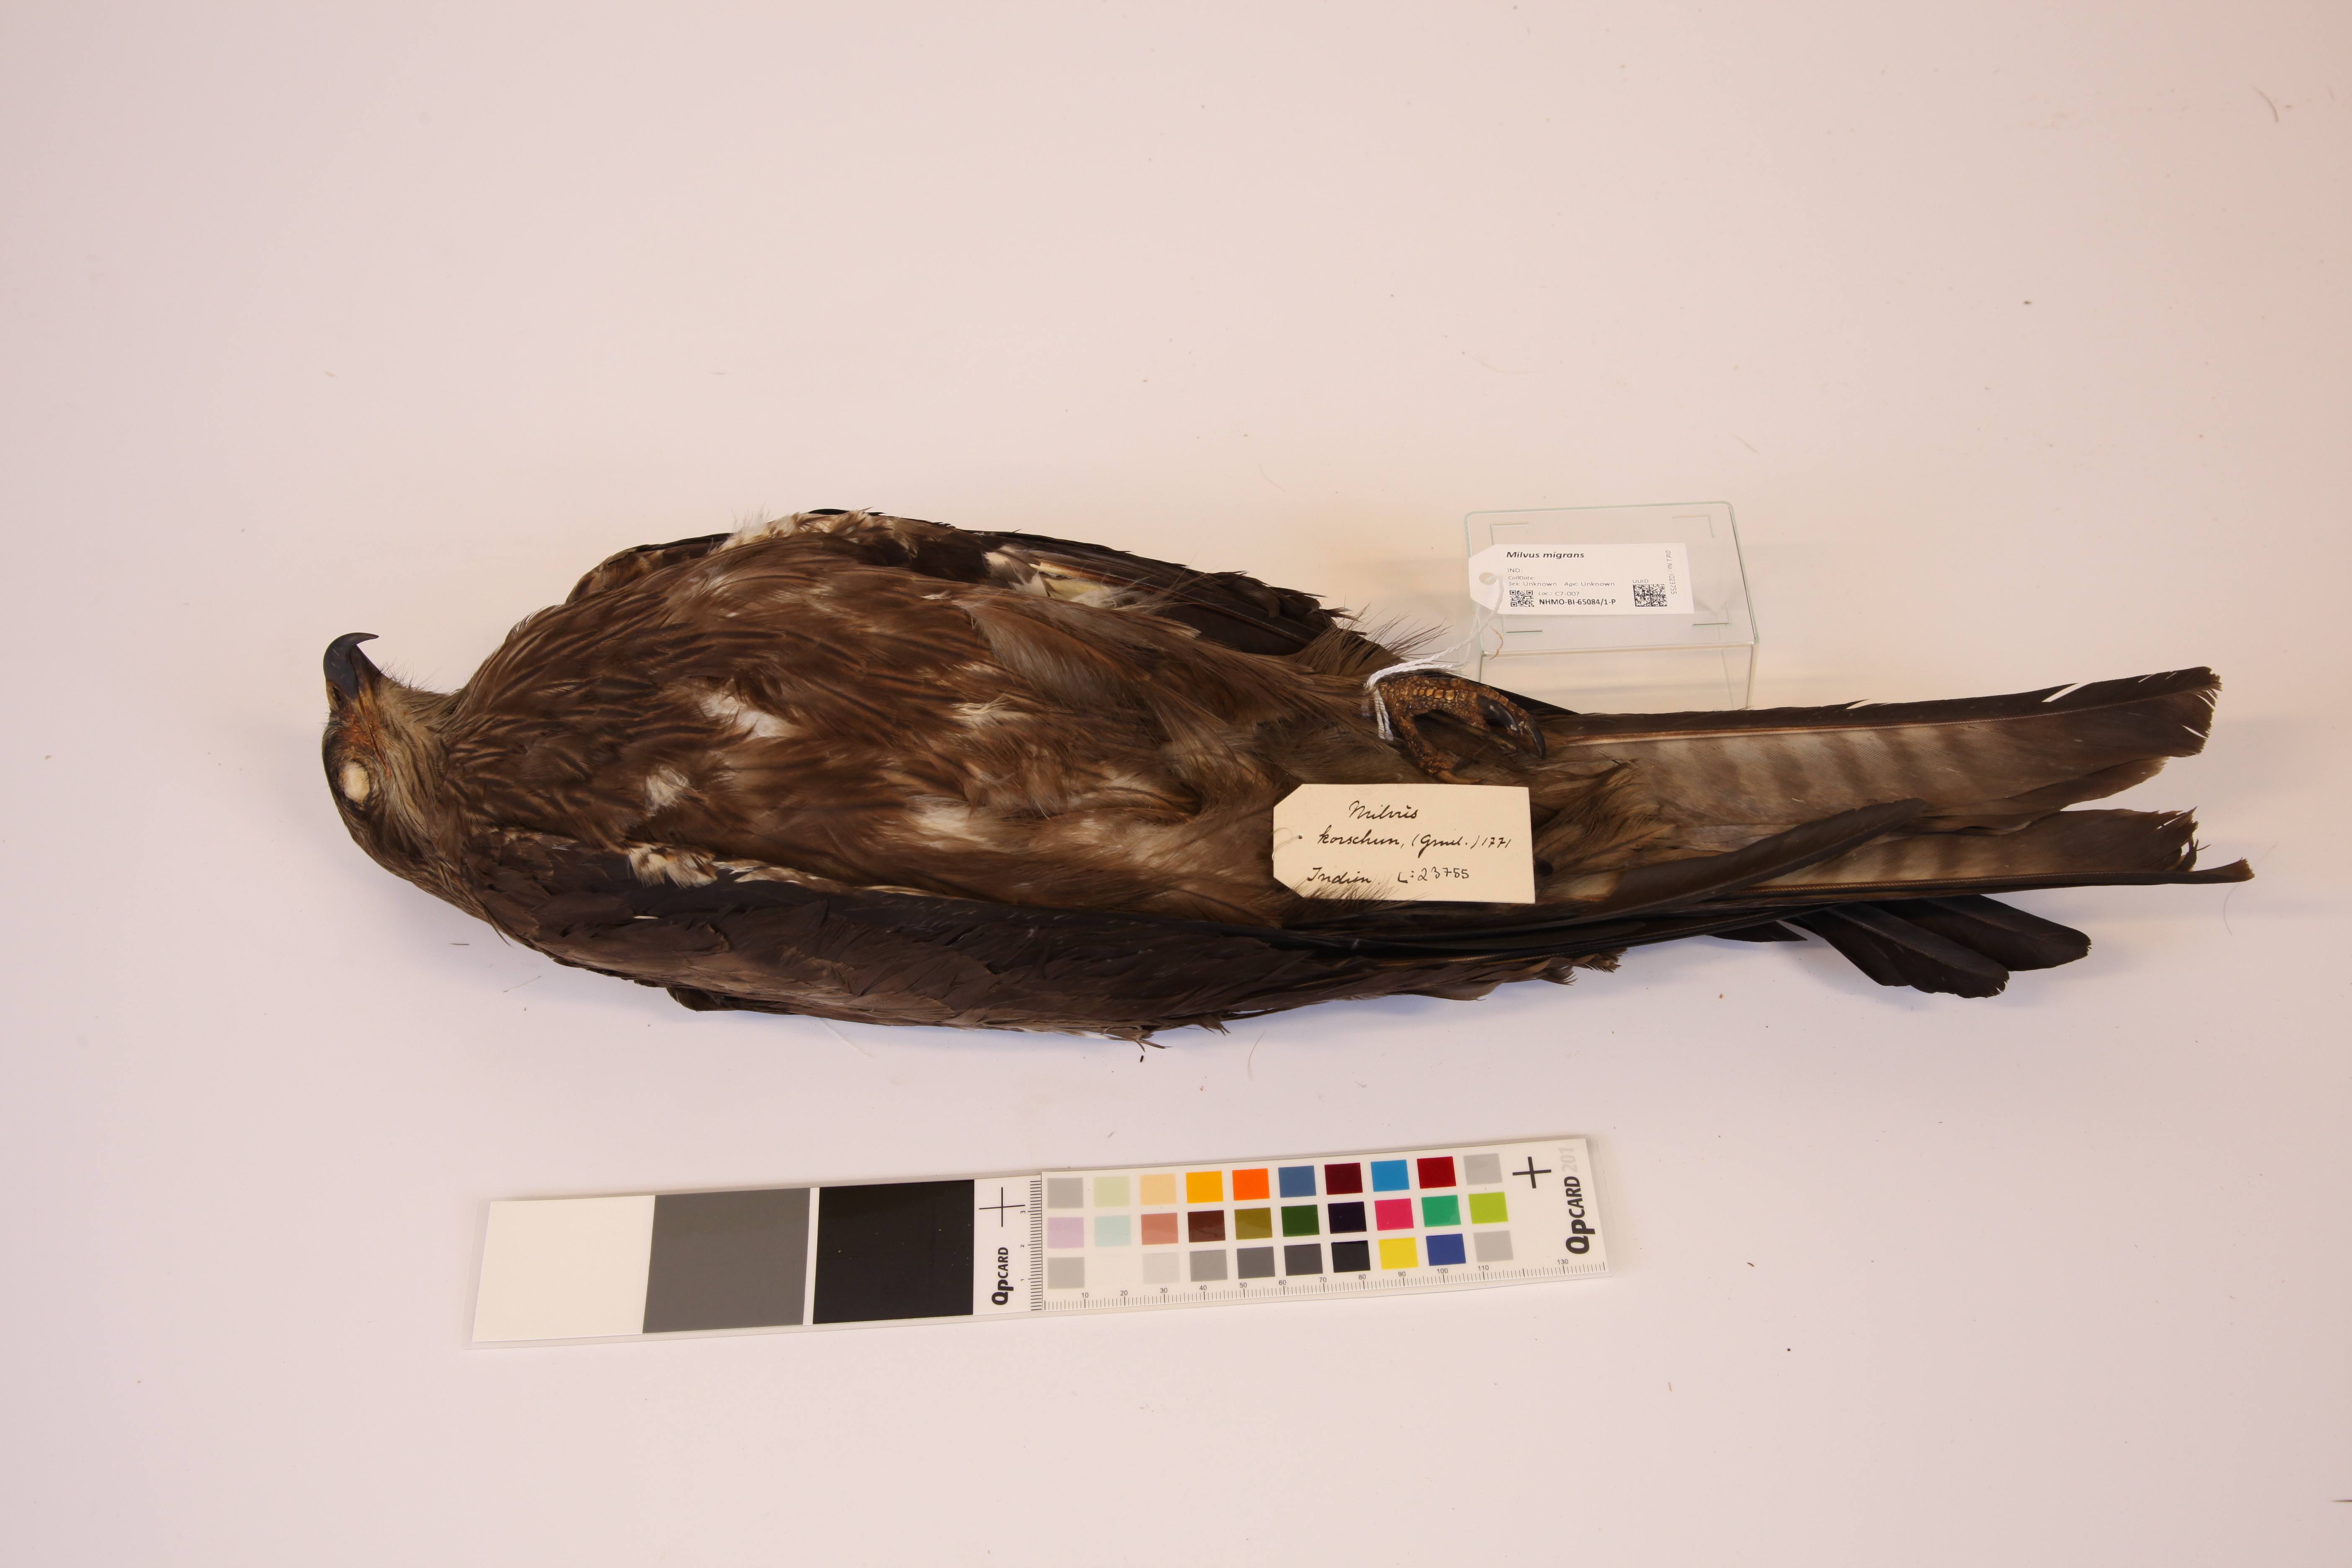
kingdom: Animalia
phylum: Chordata
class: Aves
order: Accipitriformes
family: Accipitridae
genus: Milvus
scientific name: Milvus migrans
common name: Black kite
